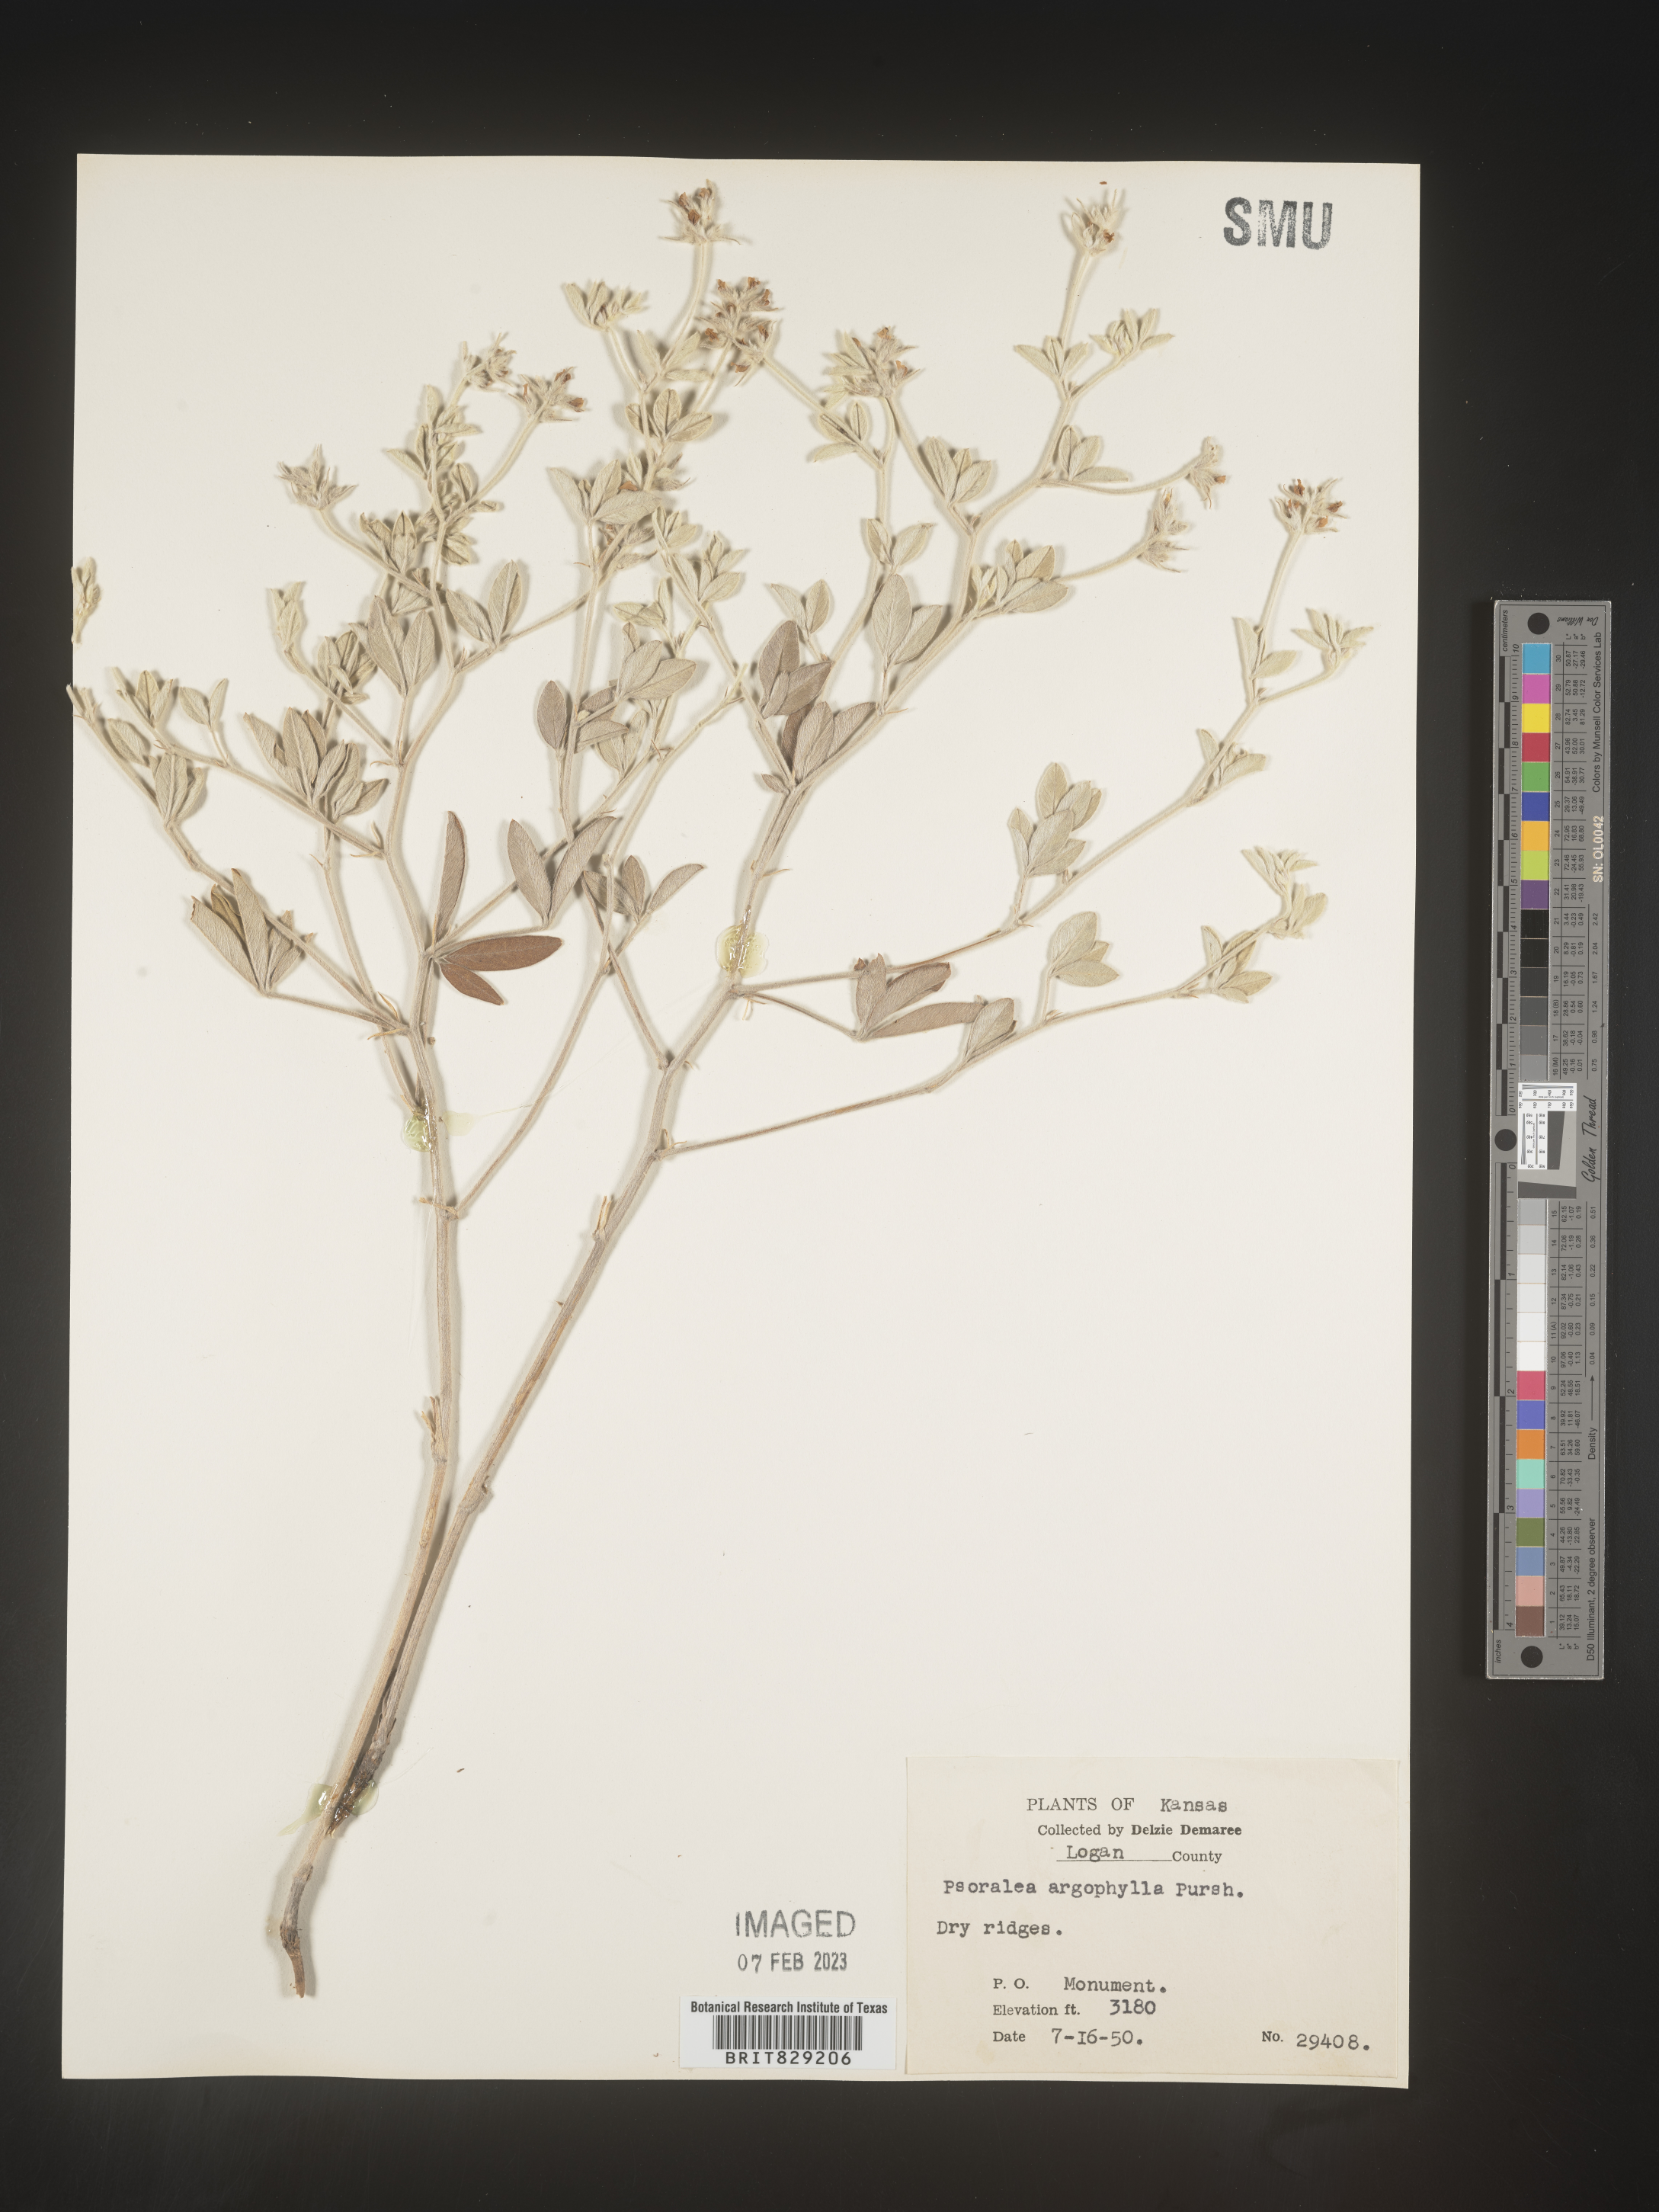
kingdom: Plantae
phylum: Tracheophyta
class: Magnoliopsida
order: Fabales
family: Fabaceae
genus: Pediomelum
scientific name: Pediomelum argophyllum
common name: Silver-leaved indian breadroot
